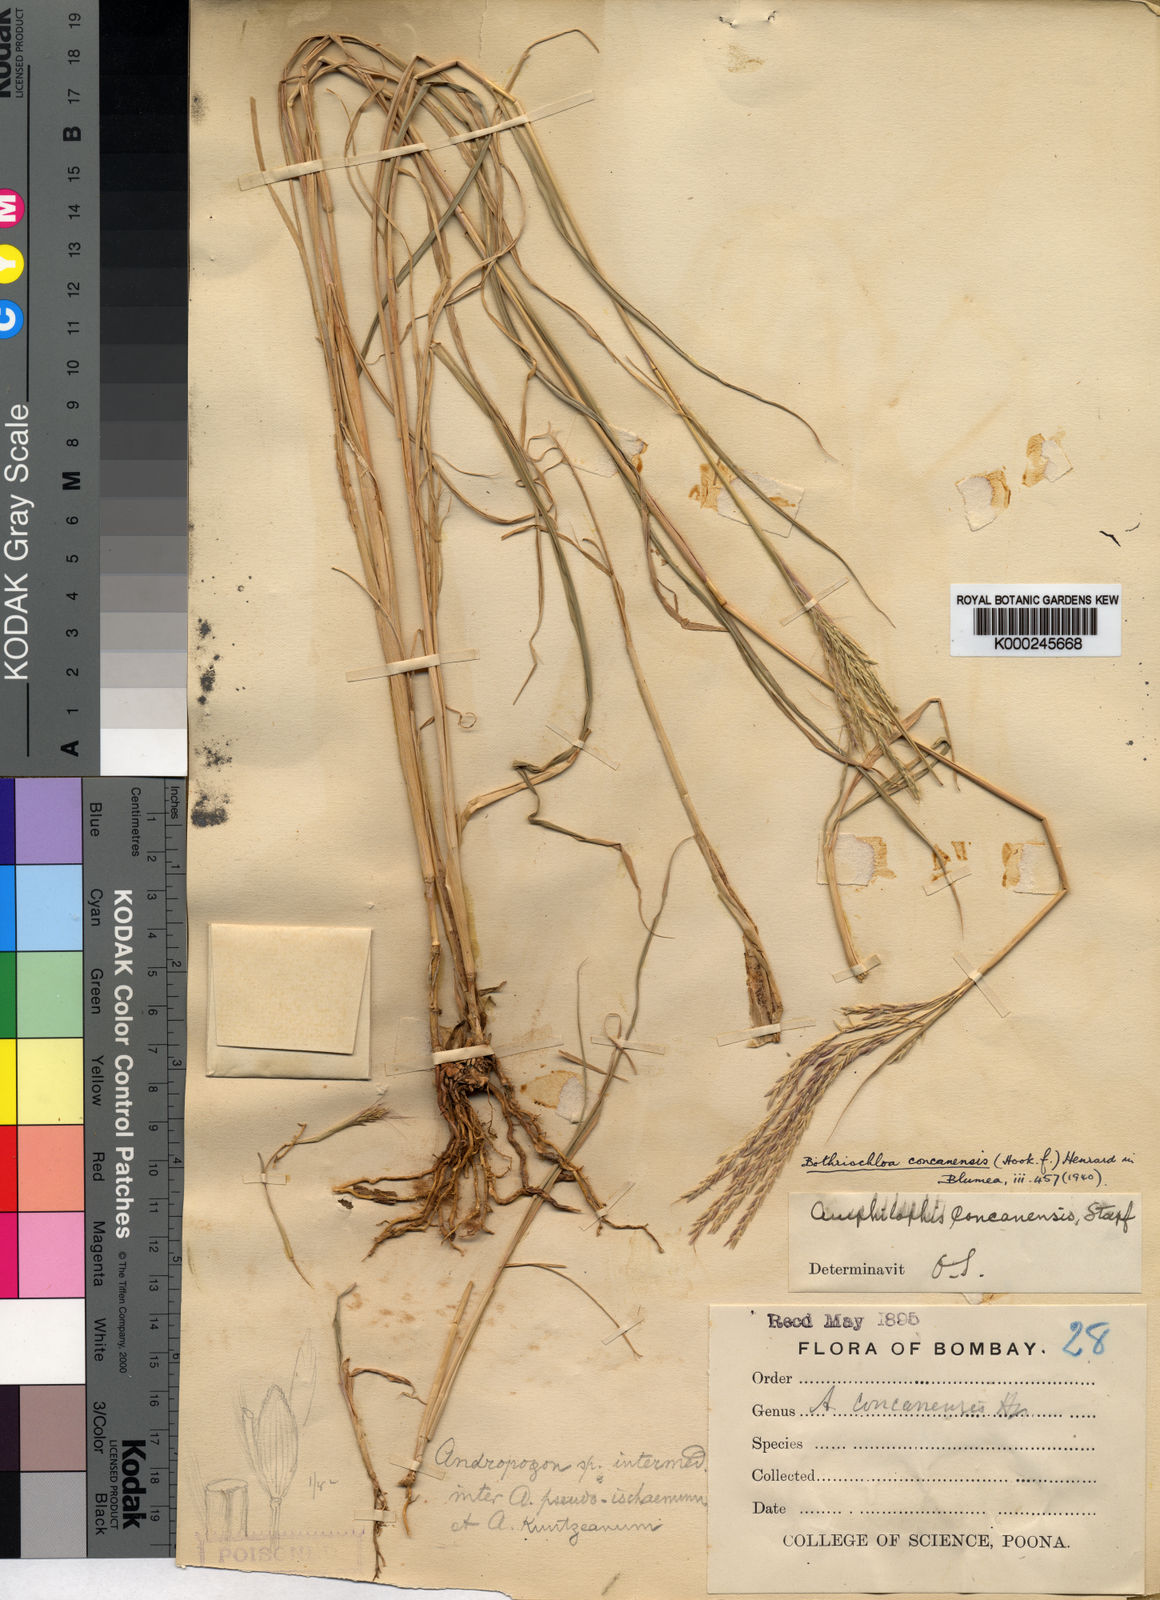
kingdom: Plantae
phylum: Tracheophyta
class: Liliopsida
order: Poales
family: Poaceae
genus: Dichanthium
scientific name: Dichanthium concanense
